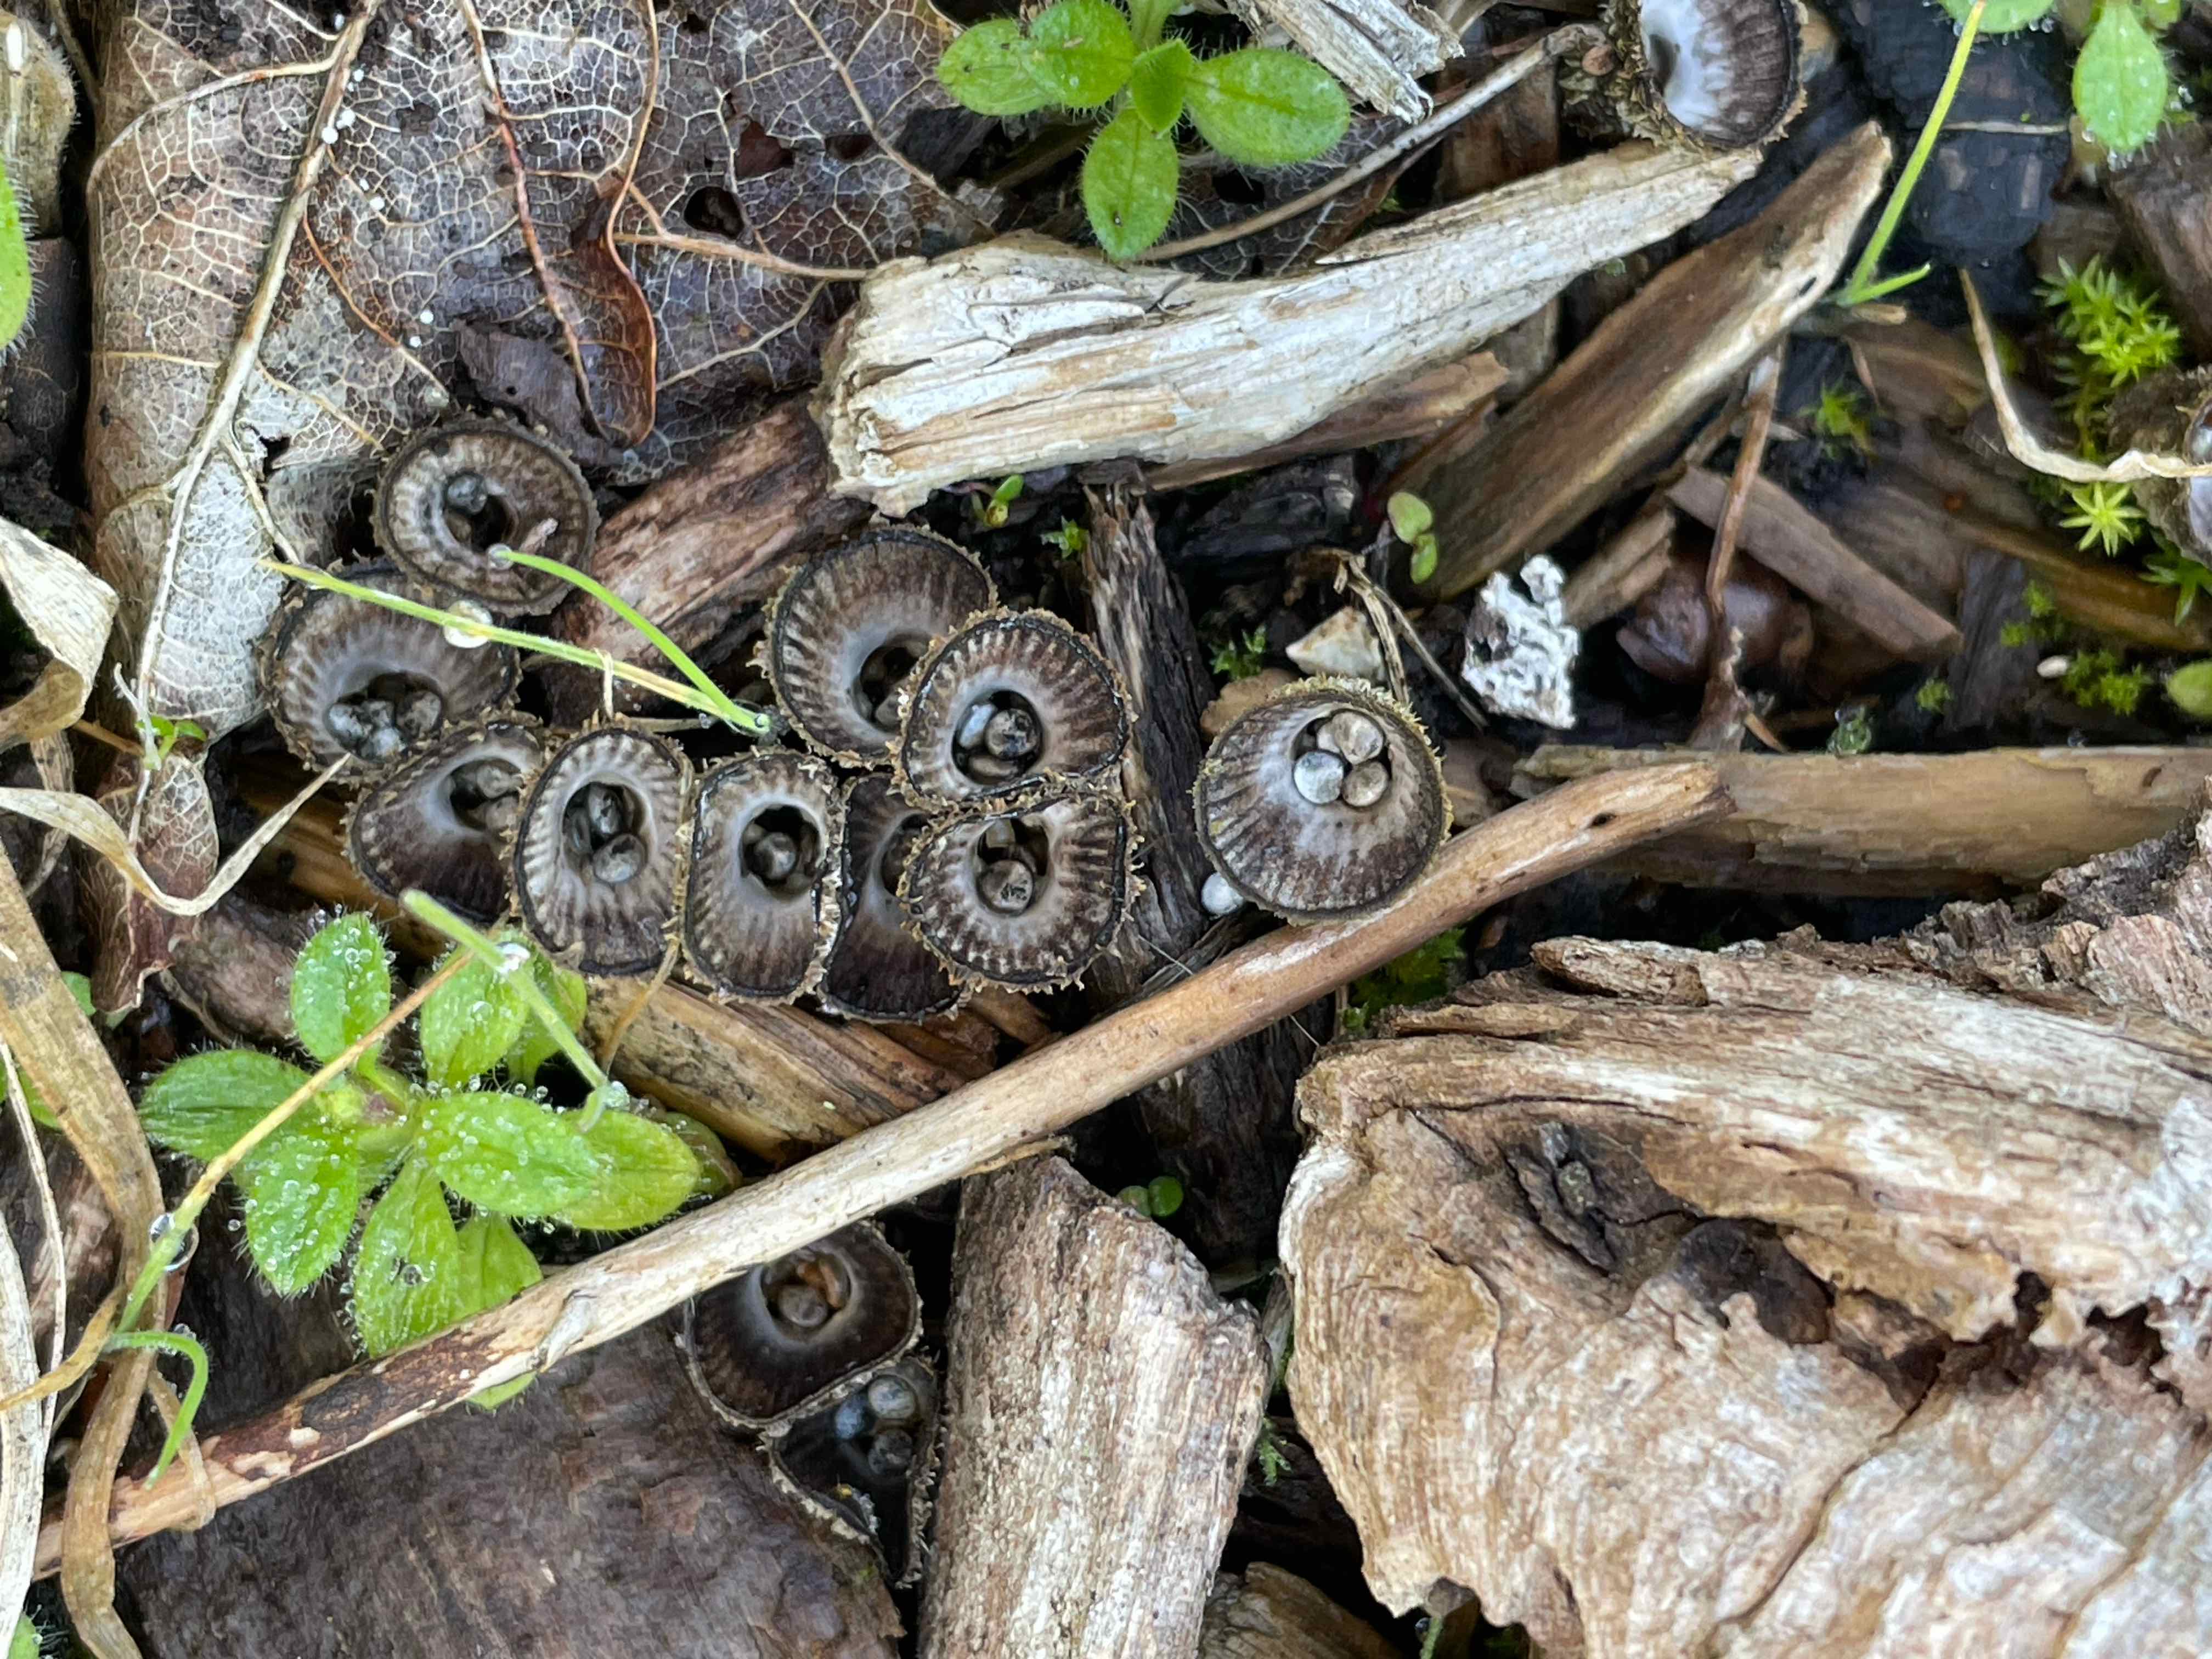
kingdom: Fungi
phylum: Basidiomycota
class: Agaricomycetes
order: Agaricales
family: Agaricaceae
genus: Cyathus
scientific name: Cyathus striatus
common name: stribet redesvamp
